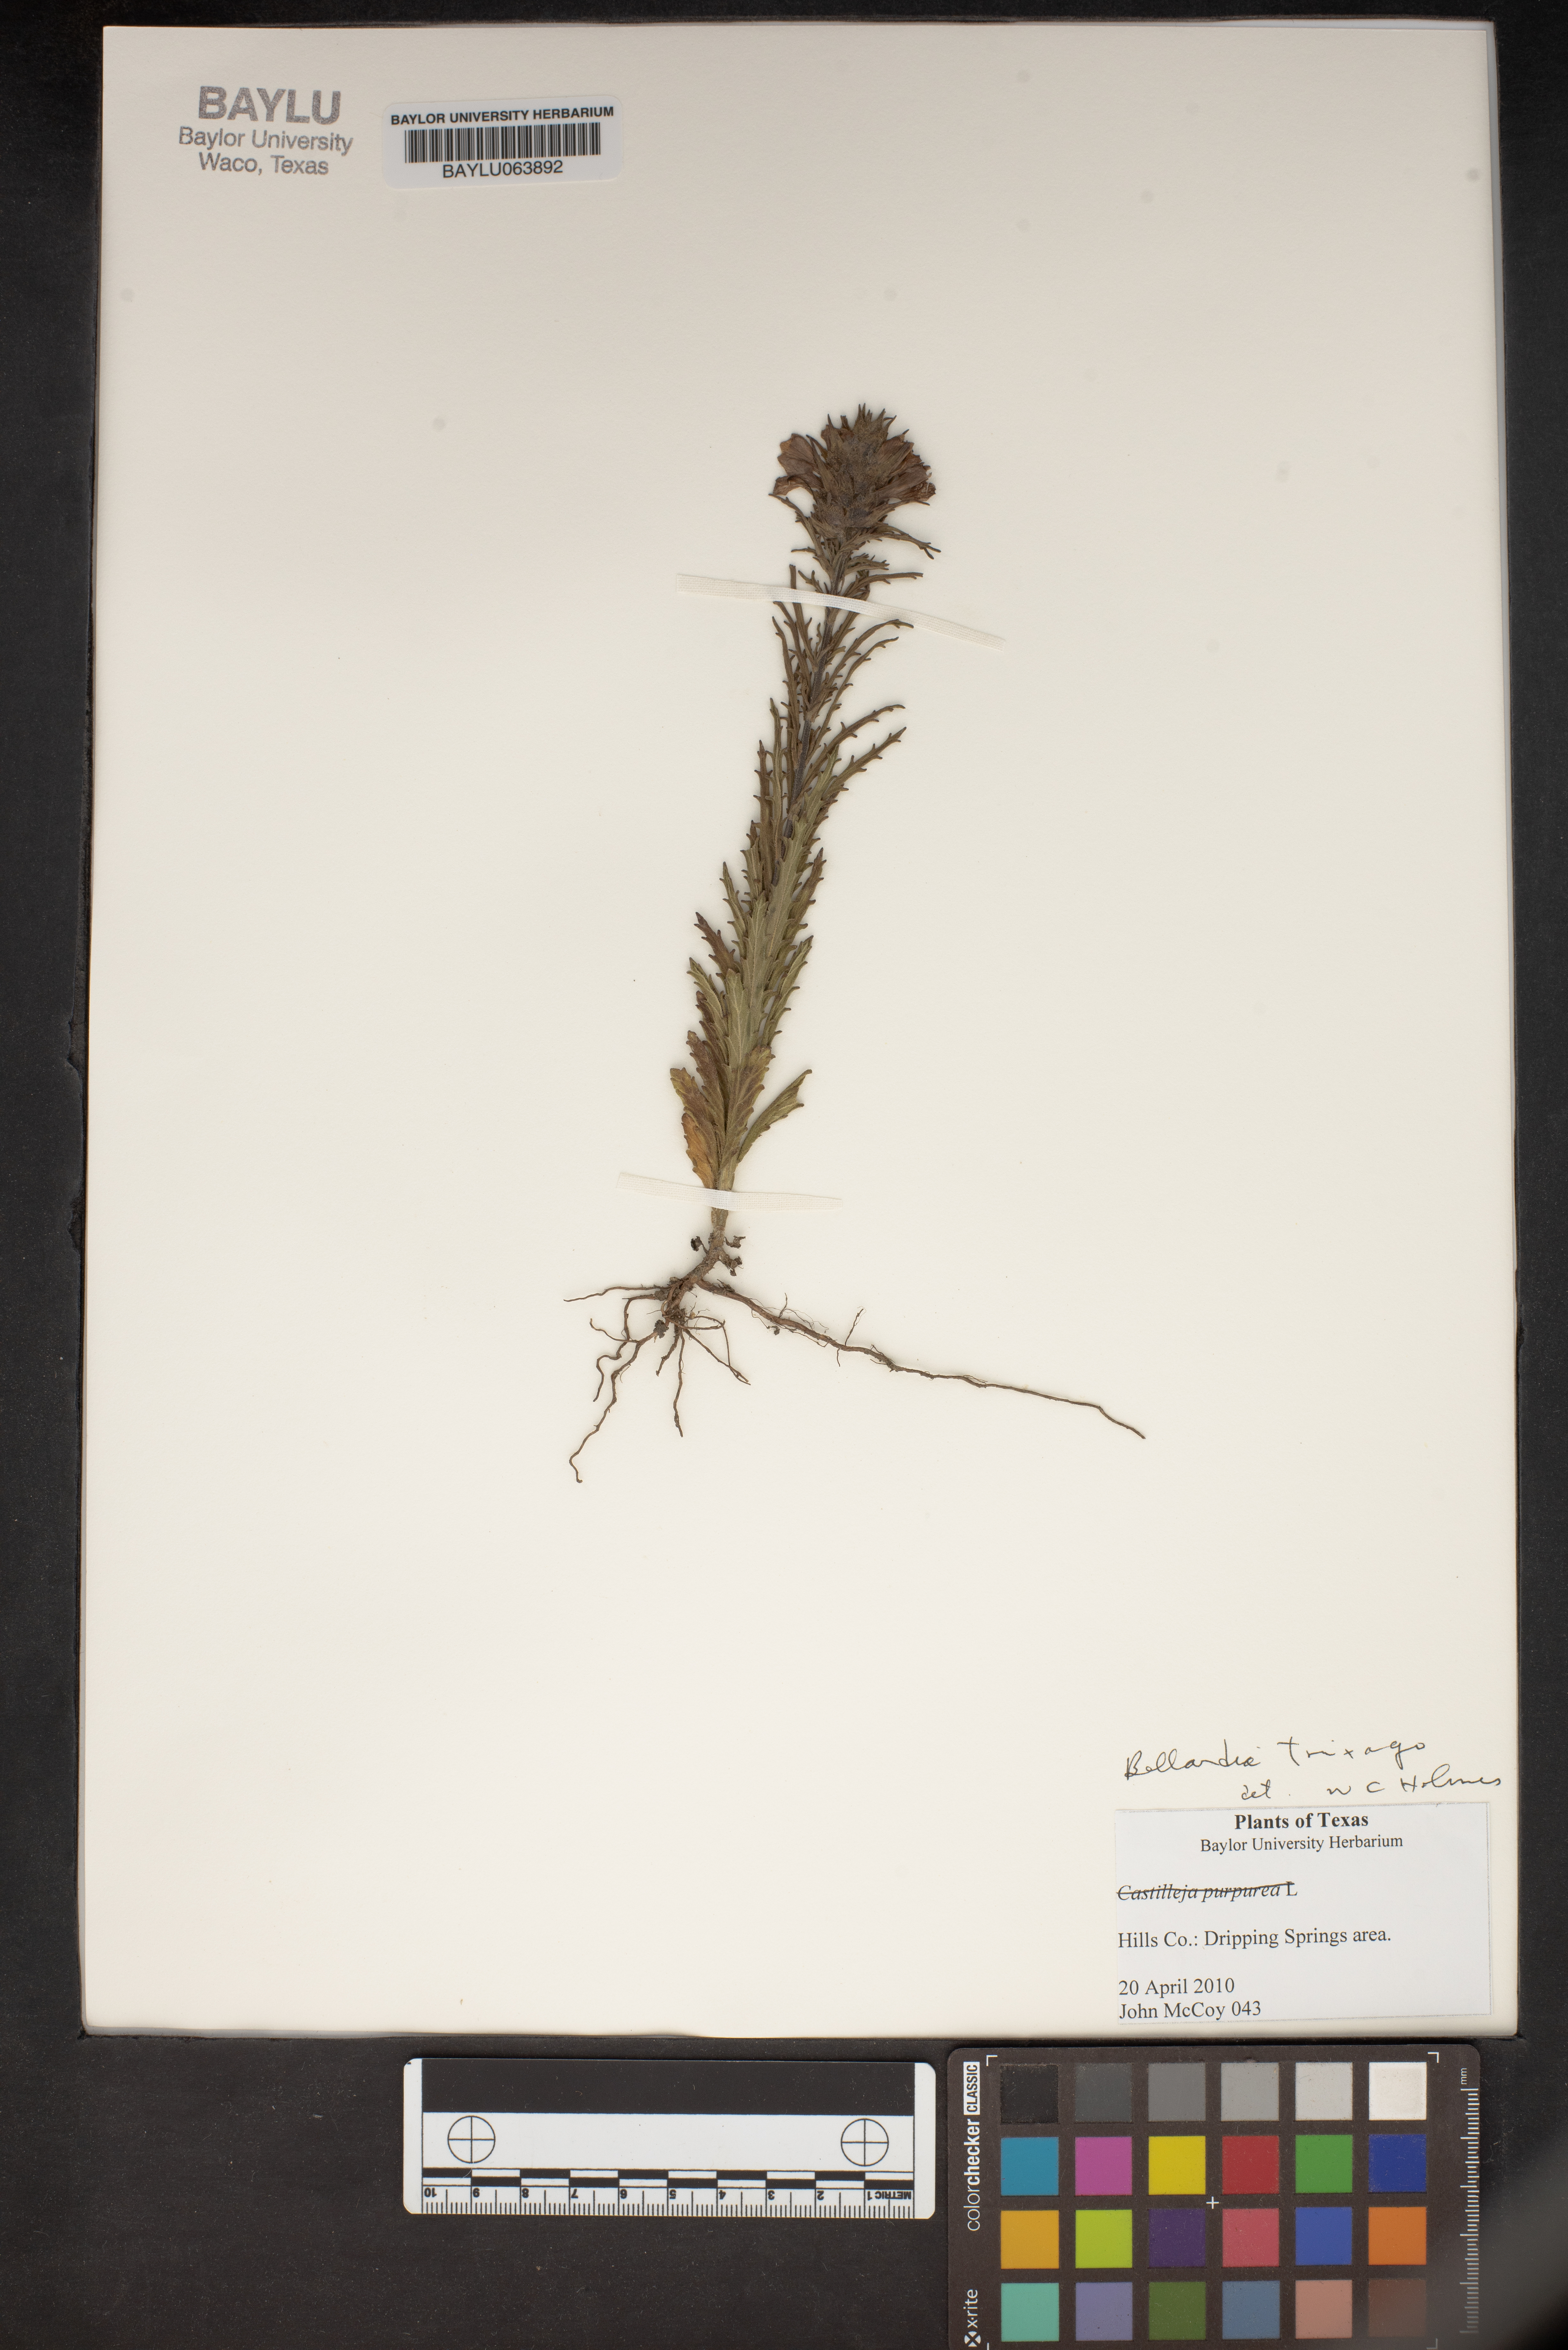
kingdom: Plantae
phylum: Tracheophyta
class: Magnoliopsida
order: Lamiales
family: Orobanchaceae
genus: Bellardia
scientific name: Bellardia trixago
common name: Mediterranean lineseed
